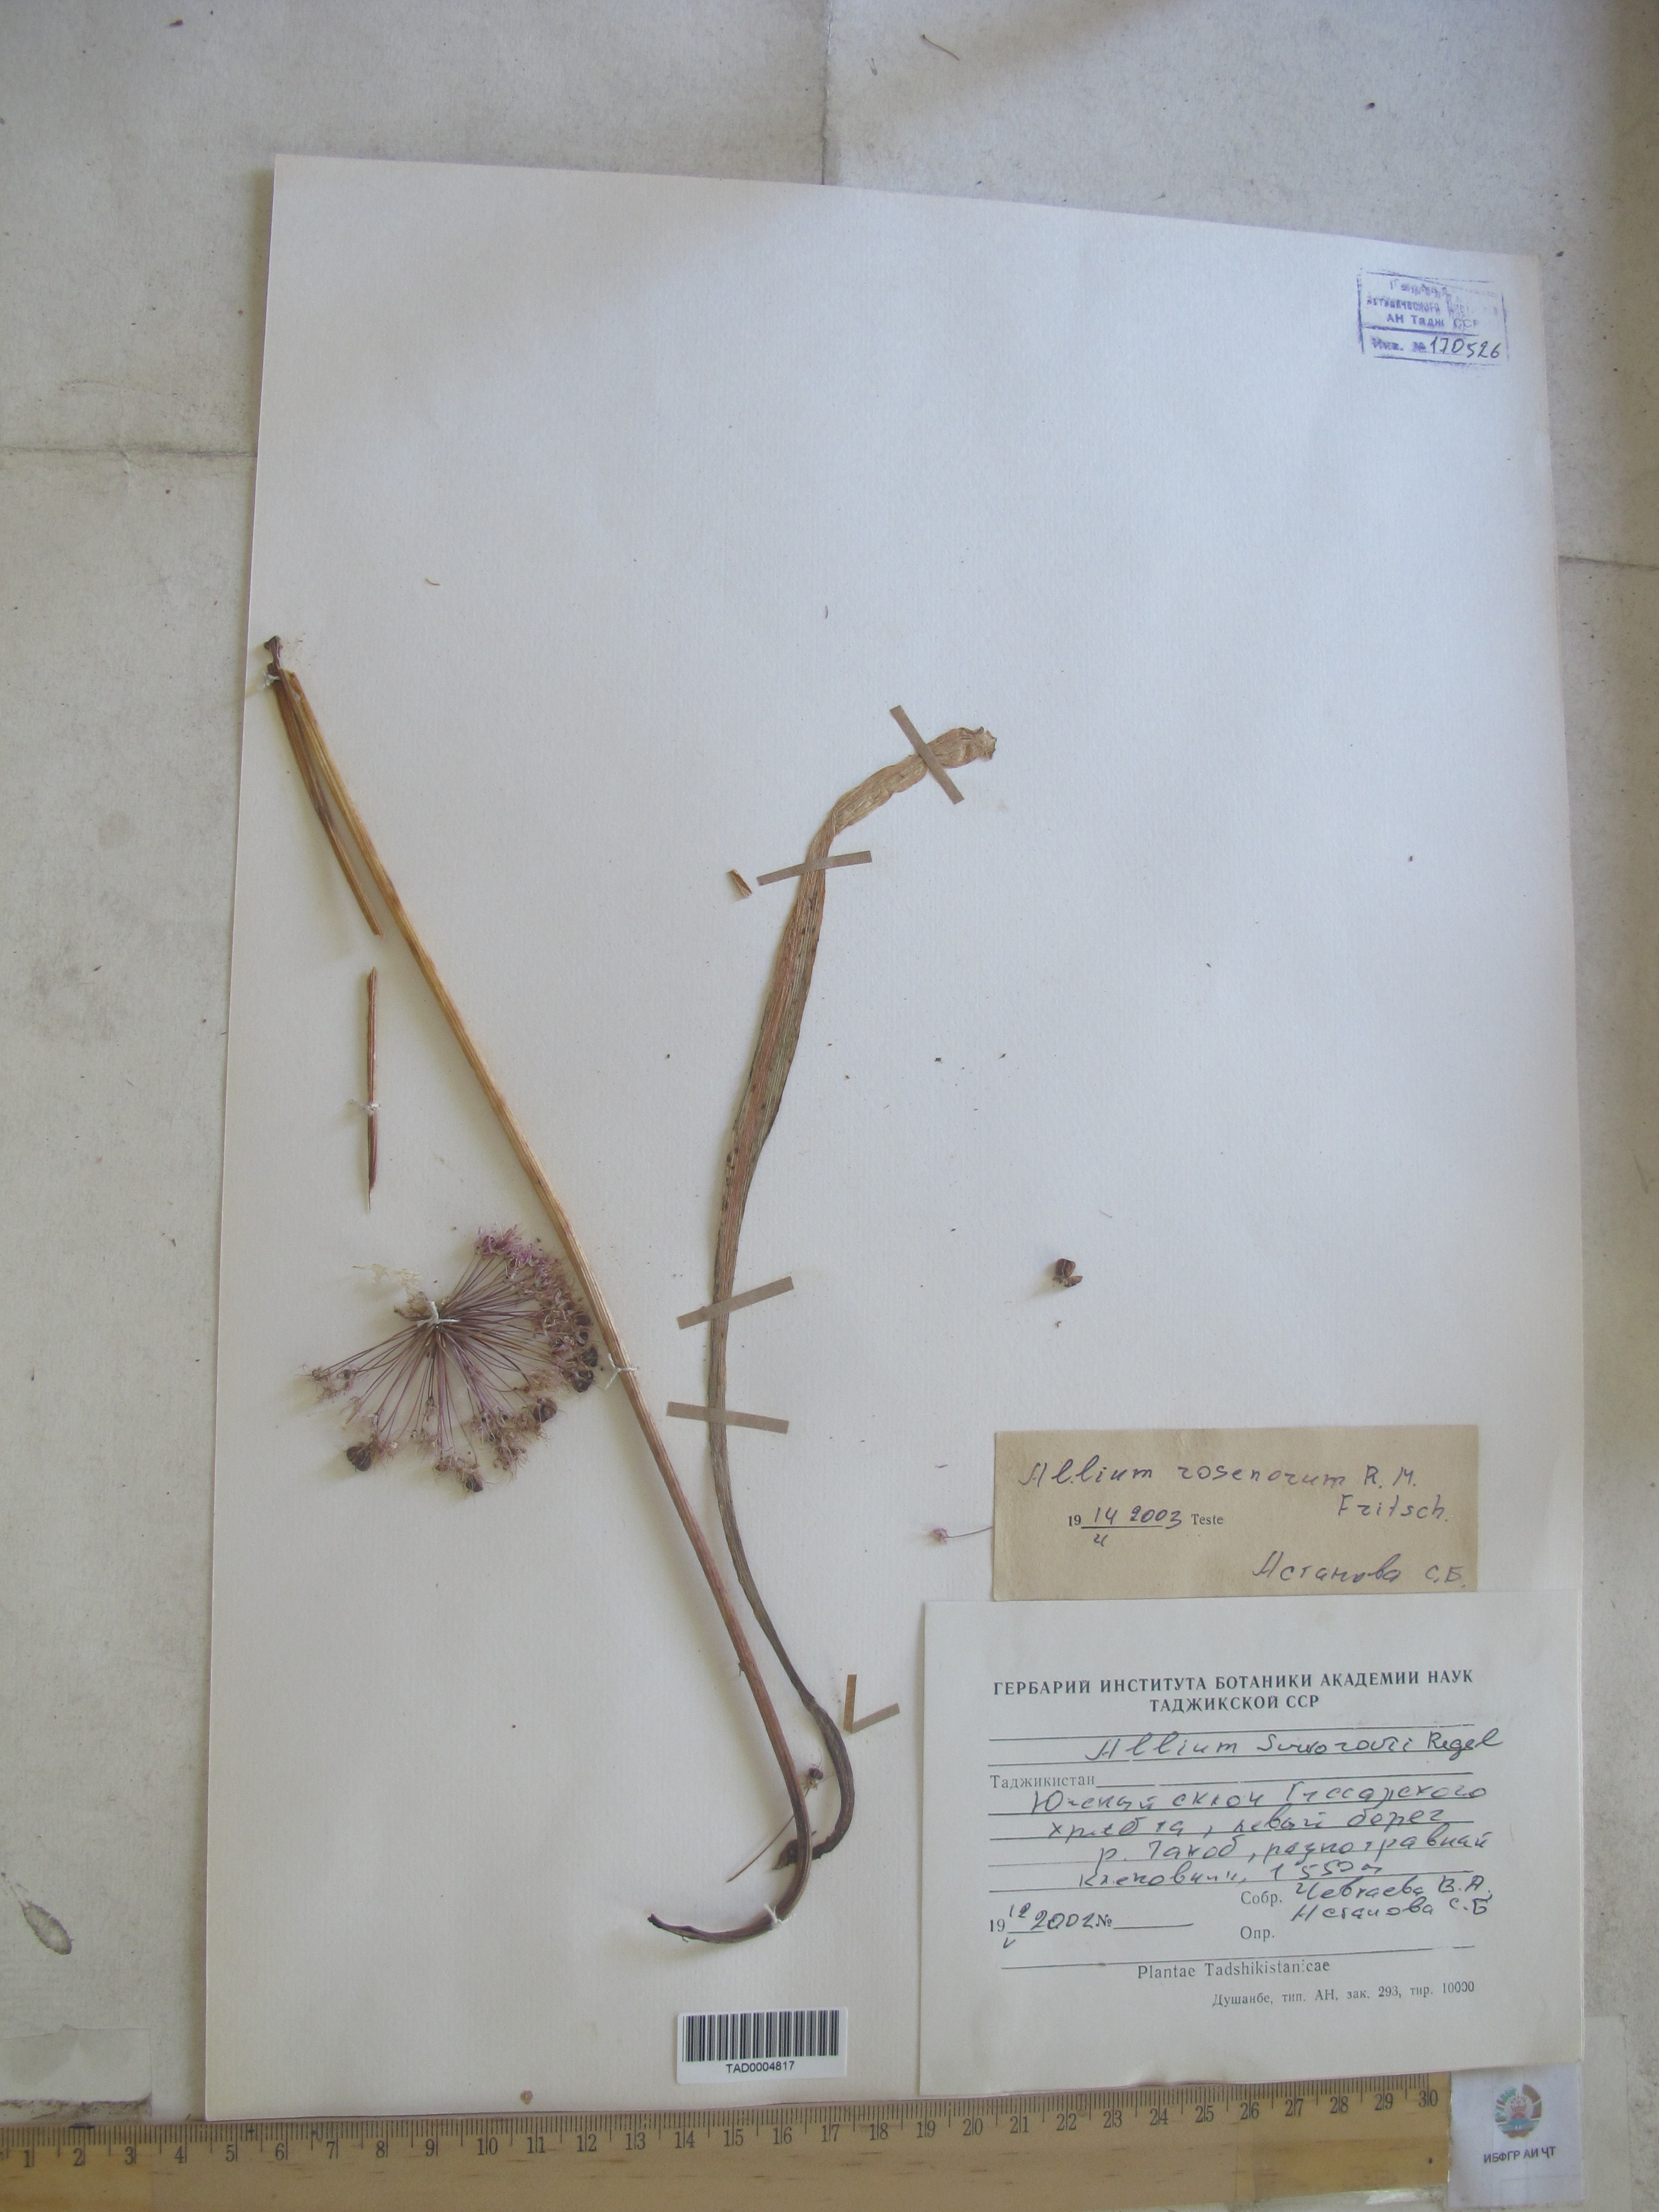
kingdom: Plantae
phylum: Tracheophyta
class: Liliopsida
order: Asparagales
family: Amaryllidaceae
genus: Allium
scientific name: Allium
